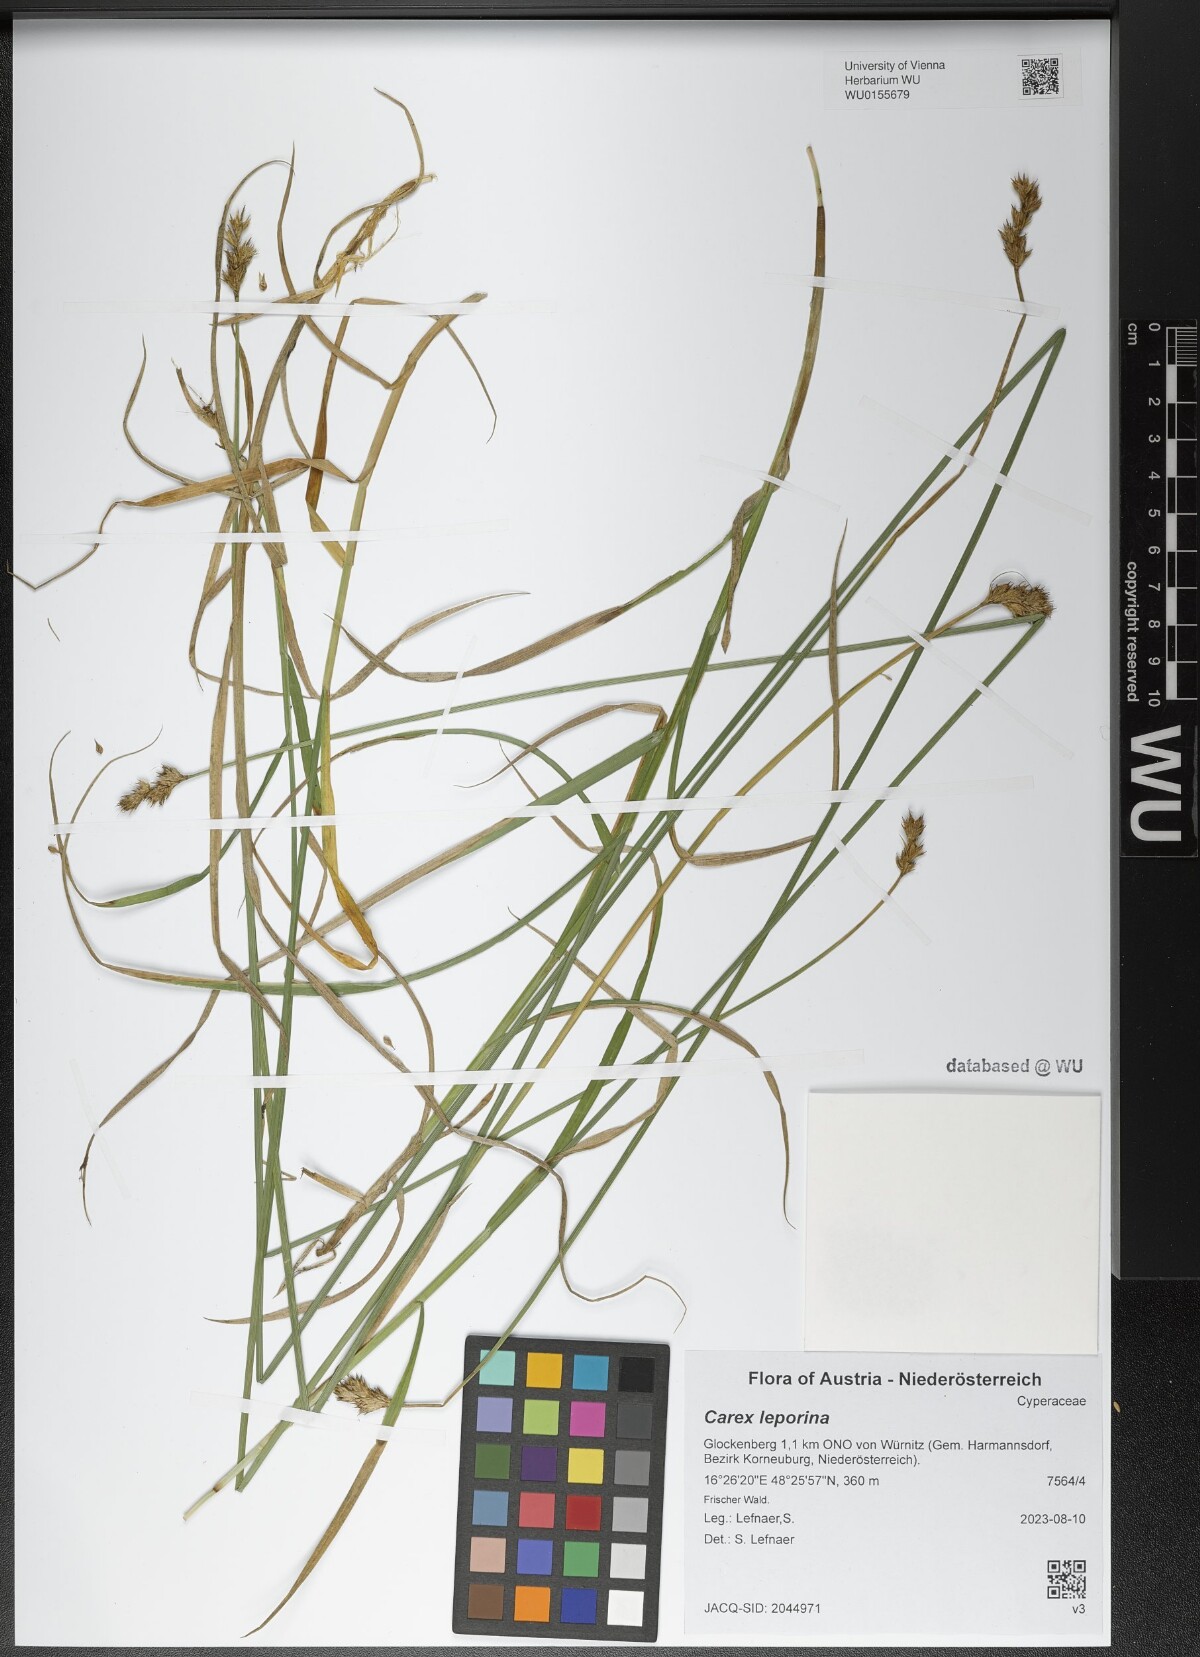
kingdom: Plantae
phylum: Tracheophyta
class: Liliopsida
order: Poales
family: Cyperaceae
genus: Carex
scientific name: Carex leporina
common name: Oval sedge
